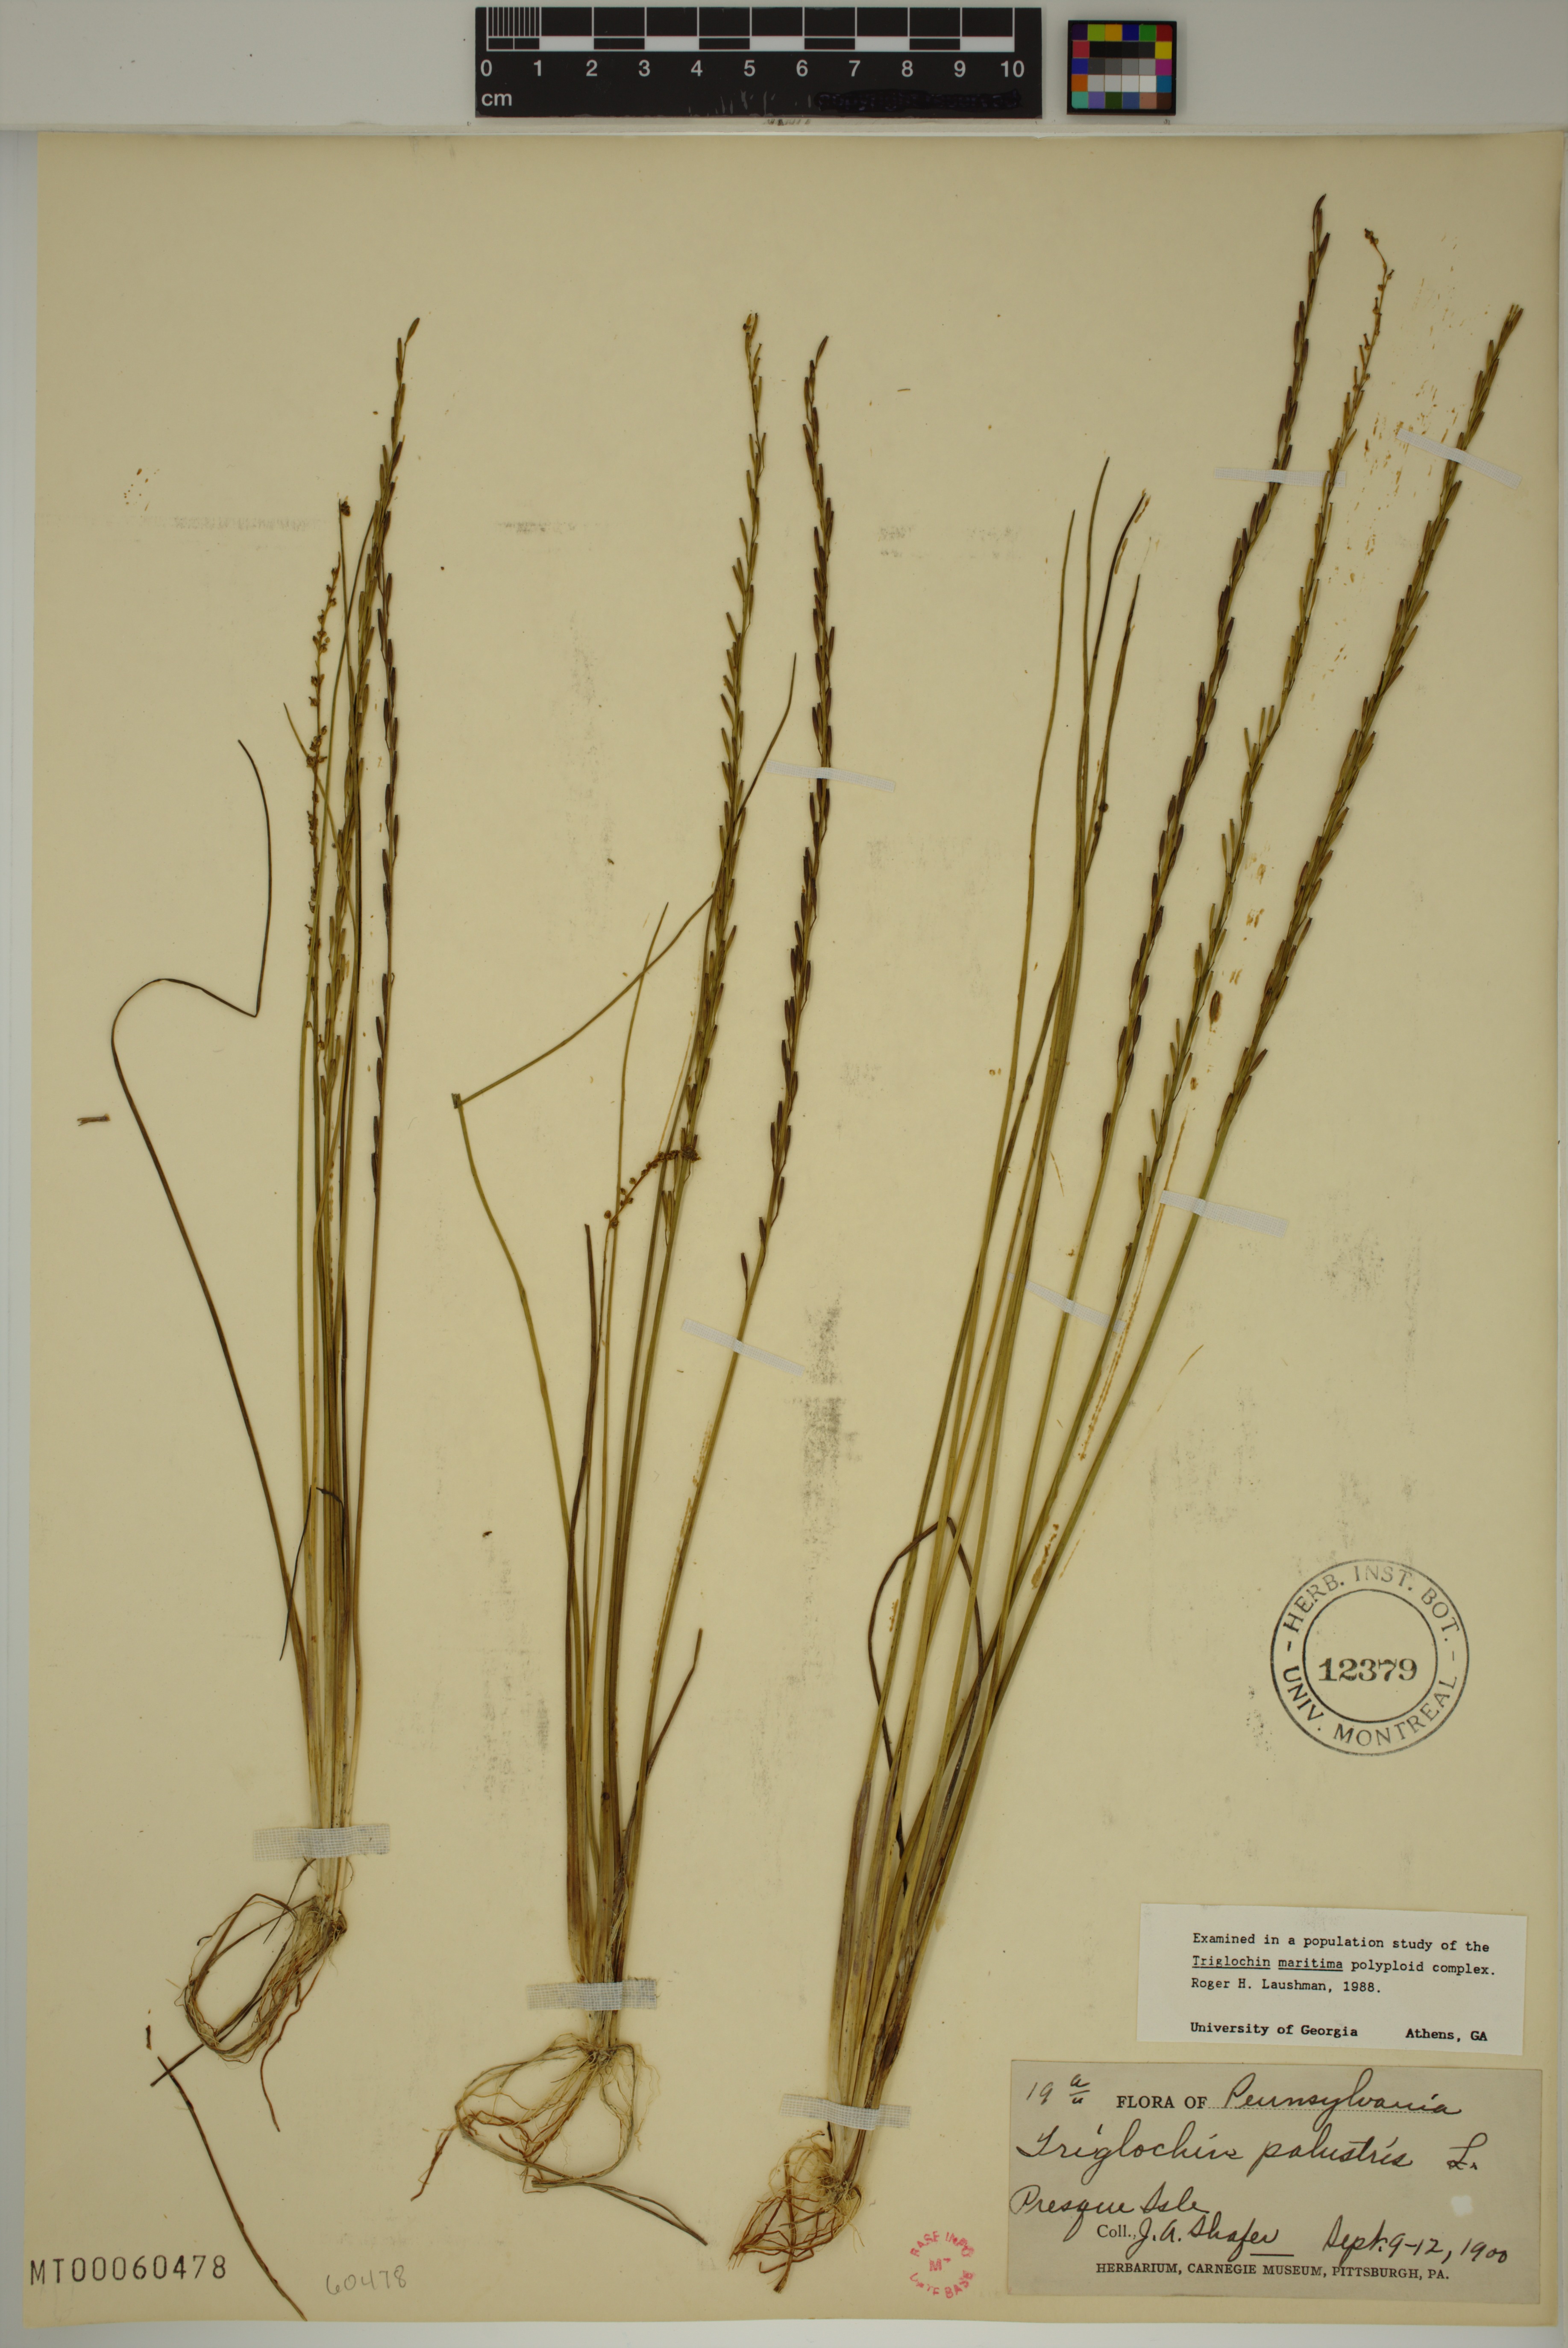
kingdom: Plantae
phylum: Tracheophyta
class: Liliopsida
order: Alismatales
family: Juncaginaceae
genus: Triglochin
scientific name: Triglochin palustris
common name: Marsh arrowgrass
